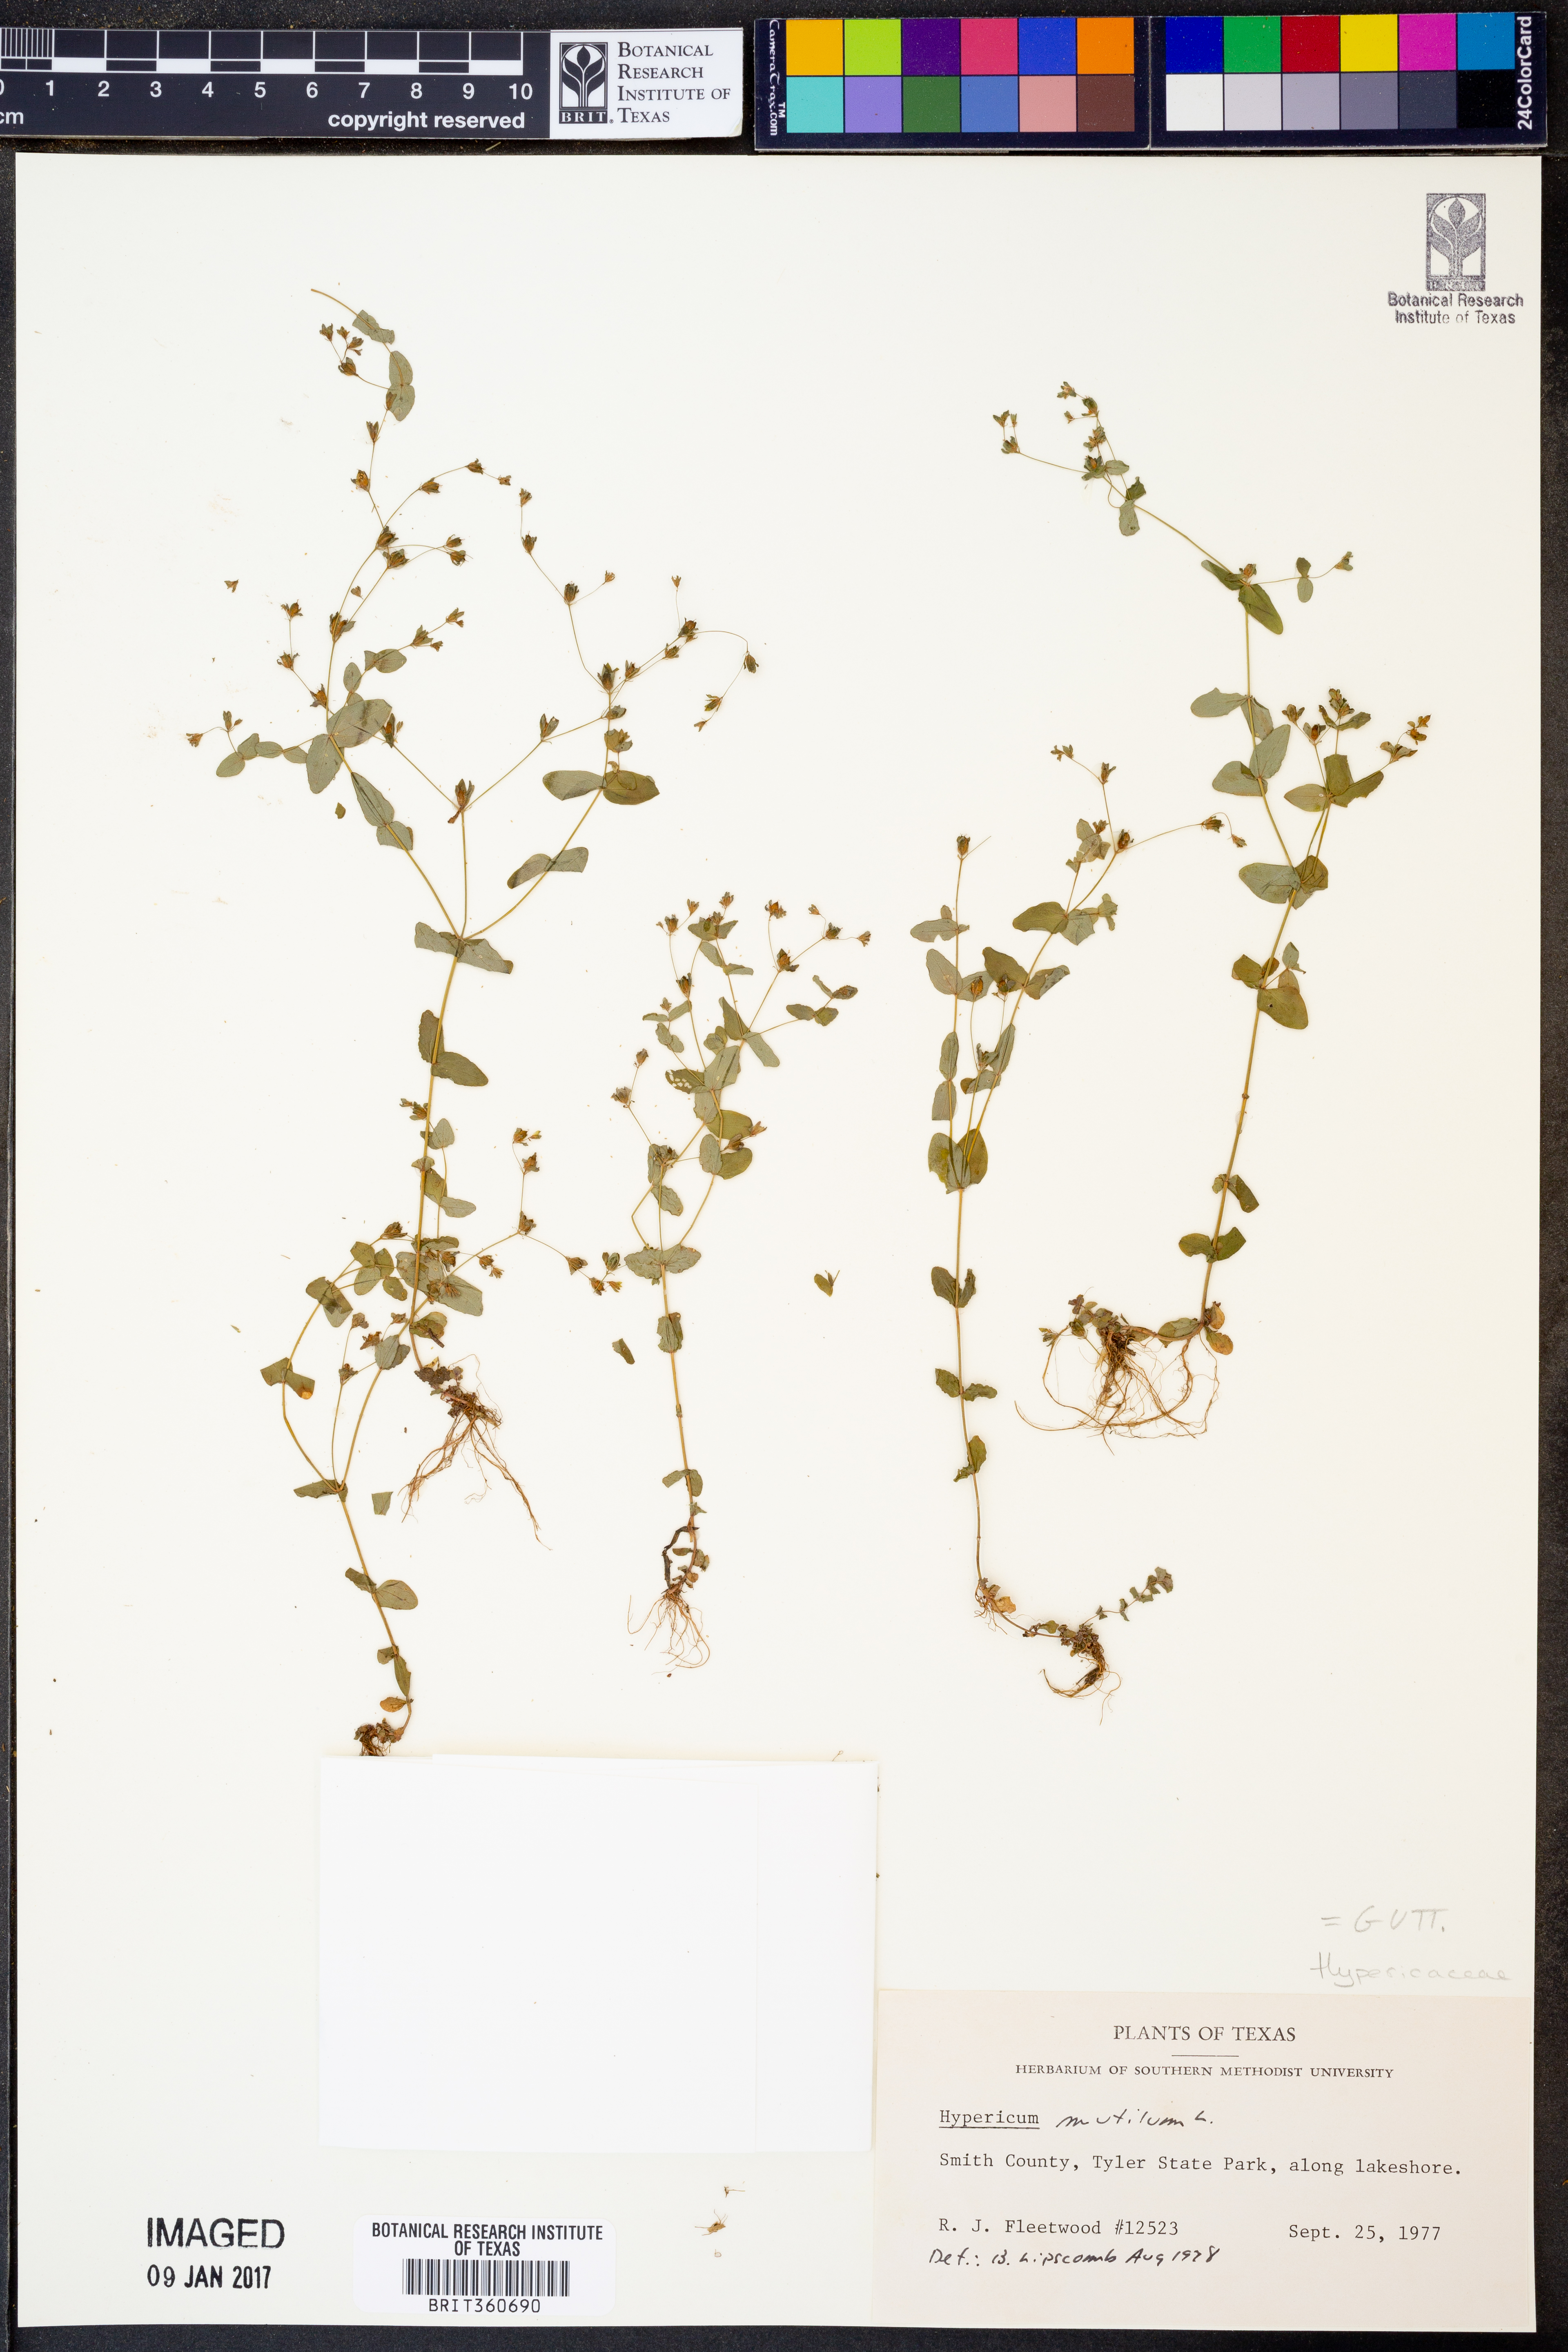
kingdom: Plantae
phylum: Tracheophyta
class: Magnoliopsida
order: Malpighiales
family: Hypericaceae
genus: Hypericum
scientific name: Hypericum mutilum
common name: Dwarf st. john's-wort
